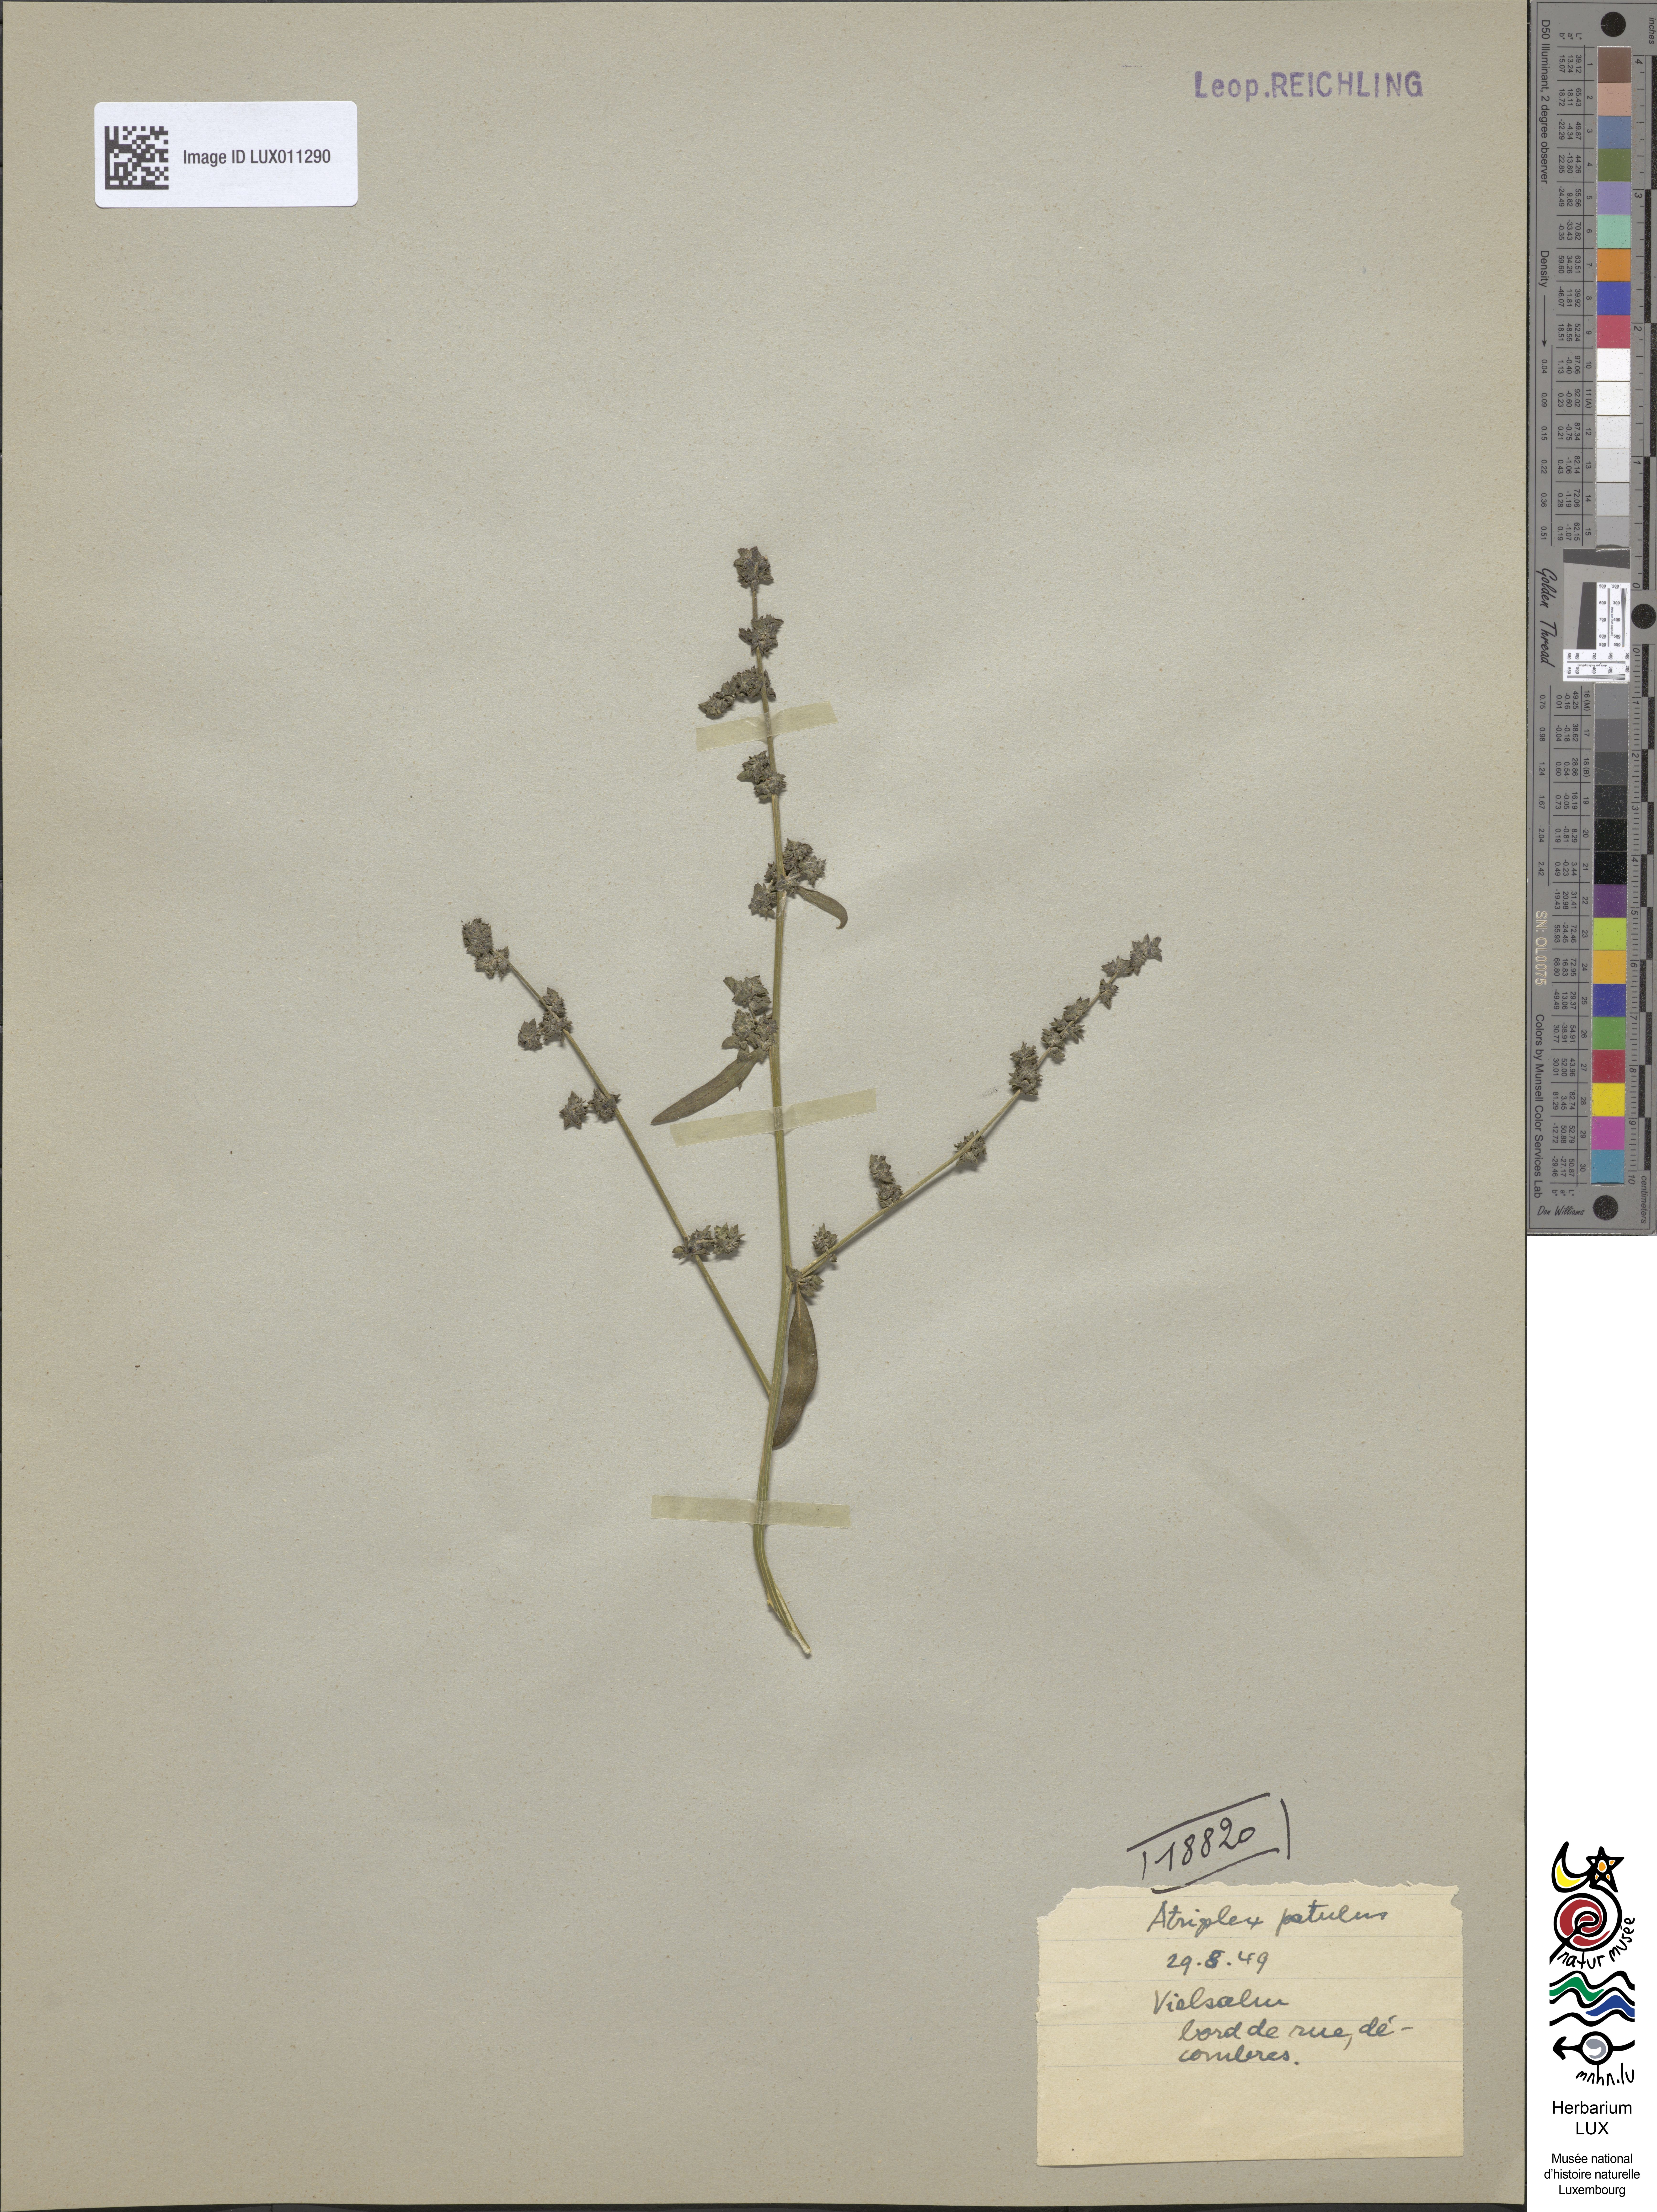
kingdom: Plantae
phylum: Tracheophyta
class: Magnoliopsida
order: Caryophyllales
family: Amaranthaceae
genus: Atriplex
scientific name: Atriplex patula
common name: Common orache
